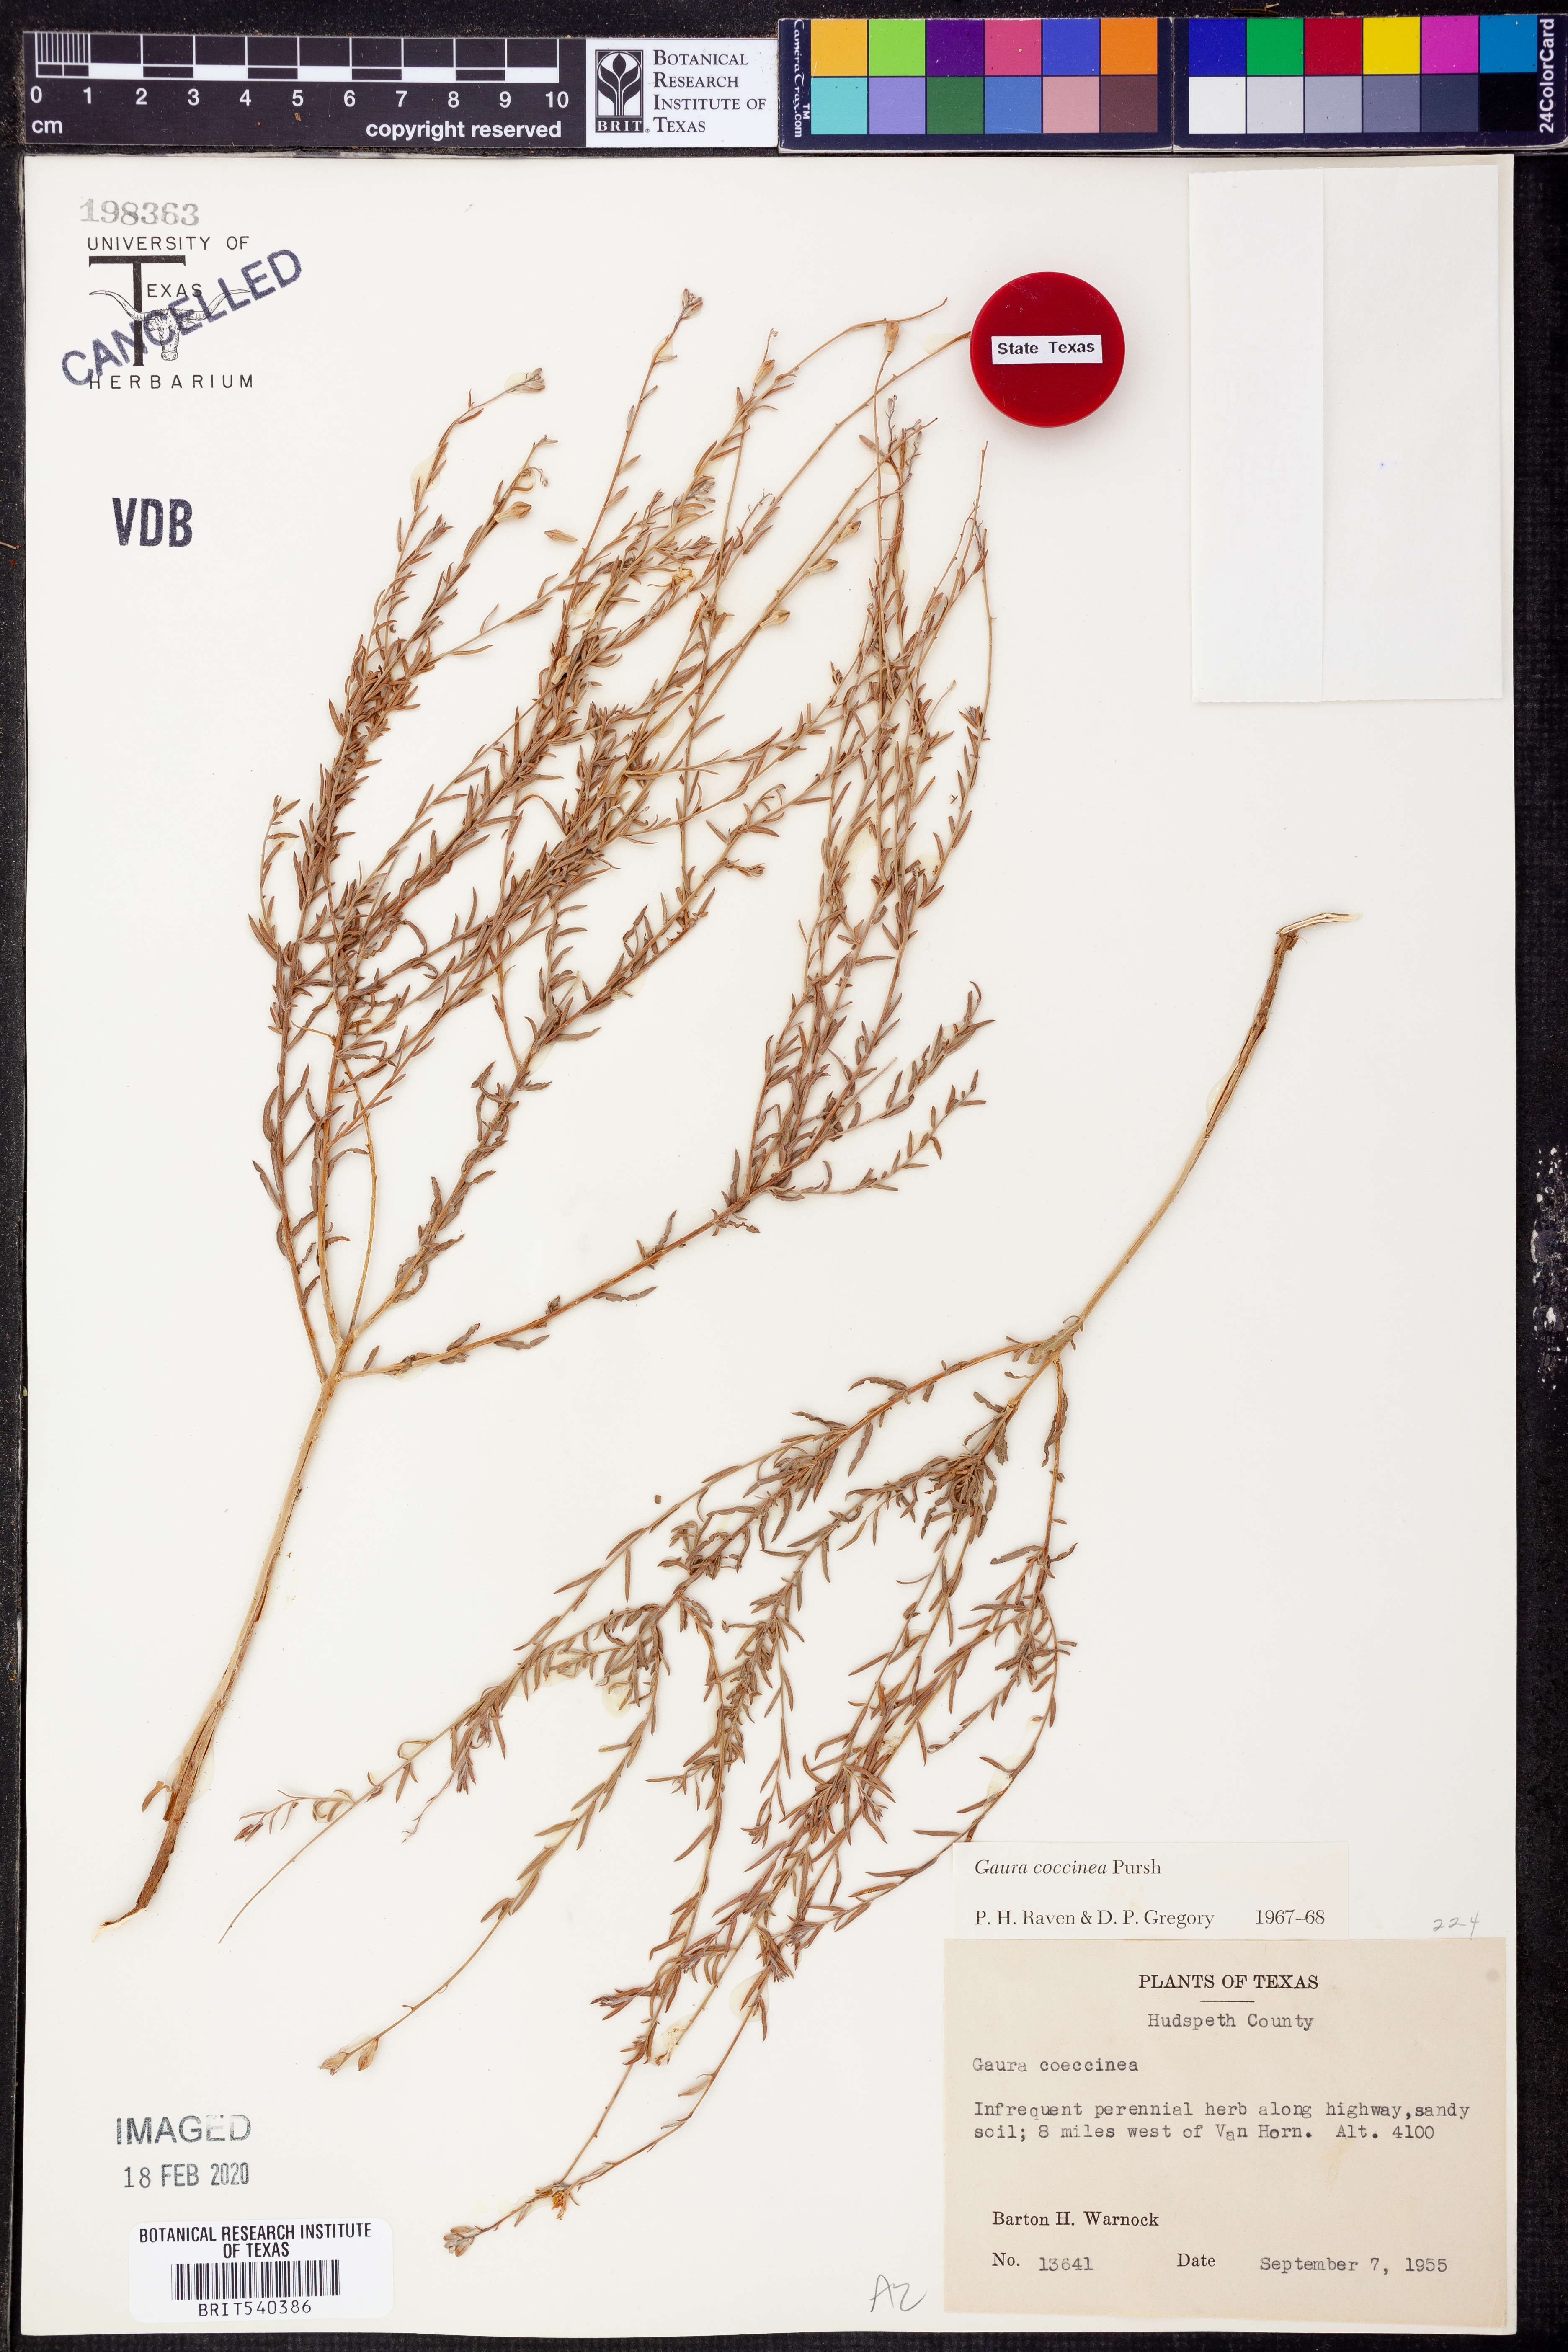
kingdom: Plantae
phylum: Tracheophyta
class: Magnoliopsida
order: Myrtales
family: Onagraceae
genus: Oenothera
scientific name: Oenothera suffrutescens
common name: Scarlet beeblossom
